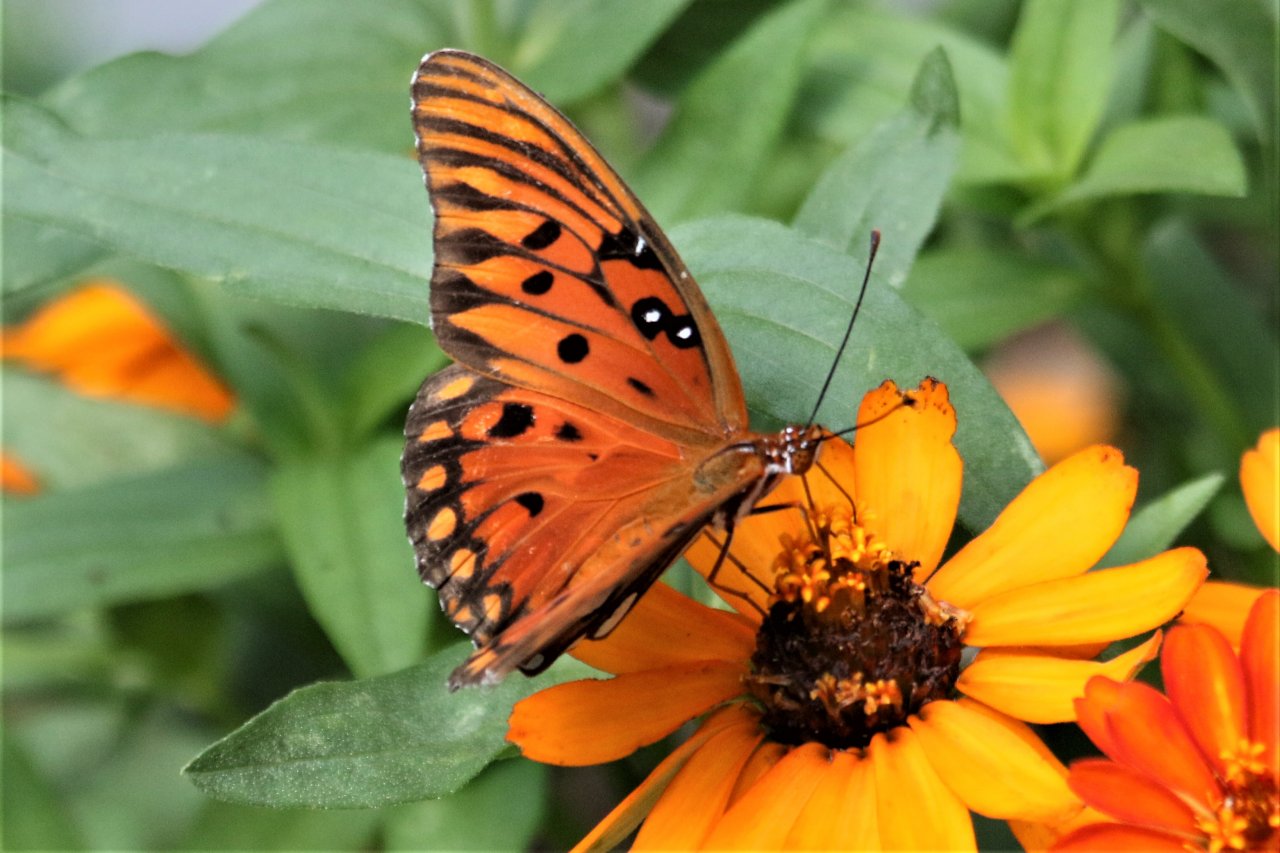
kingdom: Animalia
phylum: Arthropoda
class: Insecta
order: Lepidoptera
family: Nymphalidae
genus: Dione
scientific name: Dione vanillae
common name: Gulf Fritillary
